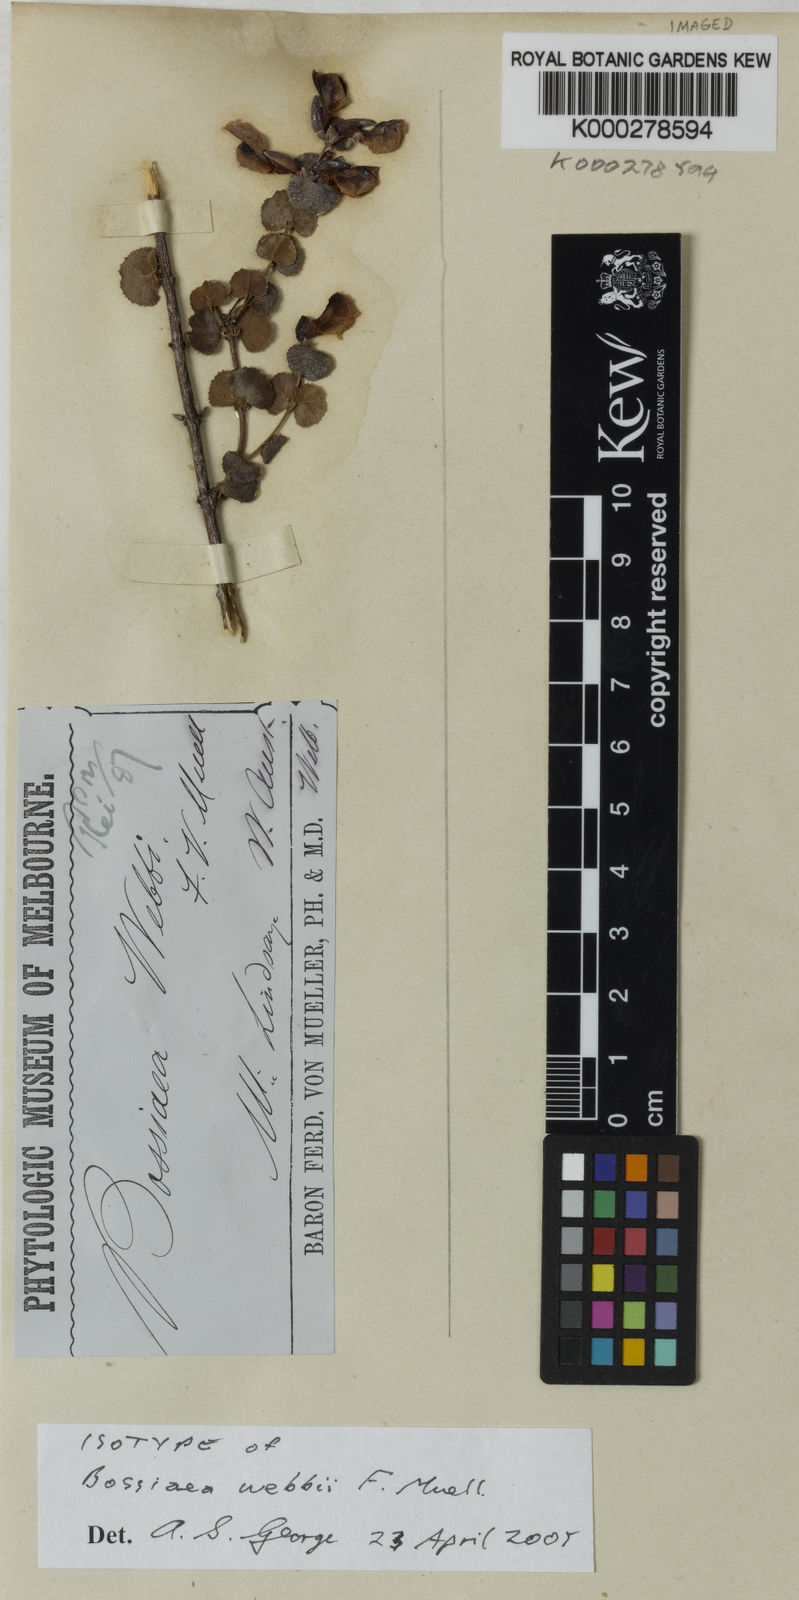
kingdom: Plantae
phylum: Tracheophyta
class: Magnoliopsida
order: Fabales
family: Fabaceae
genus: Bossiaea
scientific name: Bossiaea webbii
